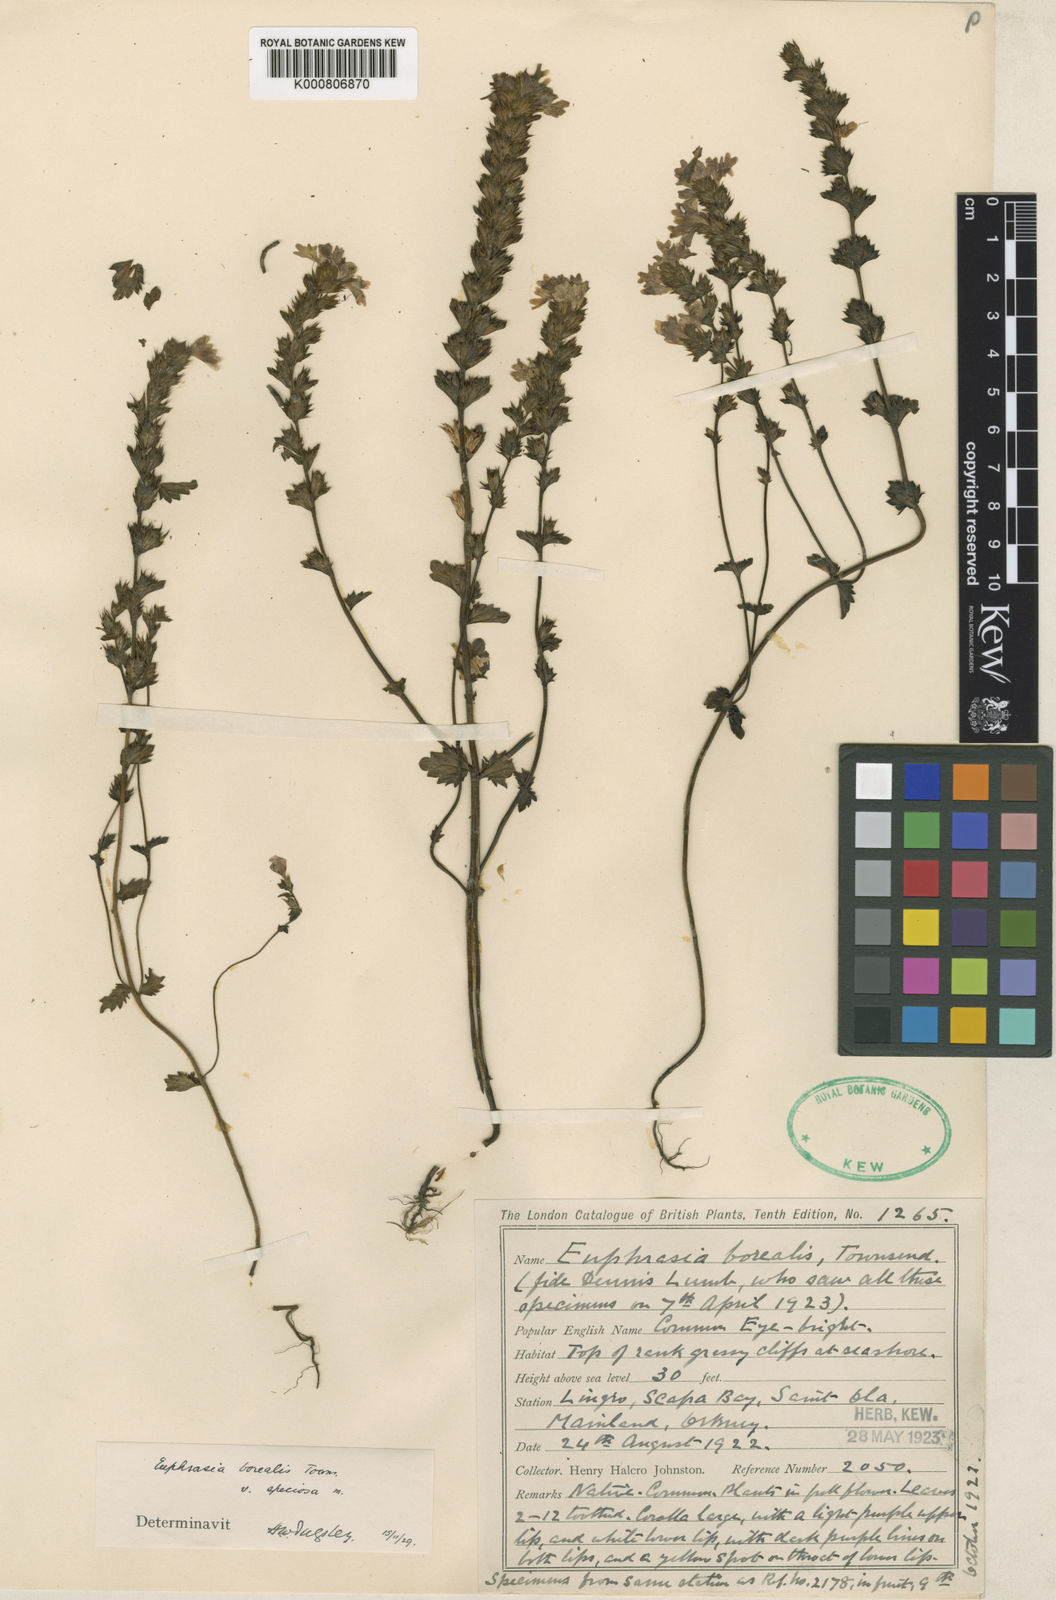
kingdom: Plantae
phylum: Tracheophyta
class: Magnoliopsida
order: Lamiales
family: Orobanchaceae
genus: Euphrasia
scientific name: Euphrasia arctica
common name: An eyebright
